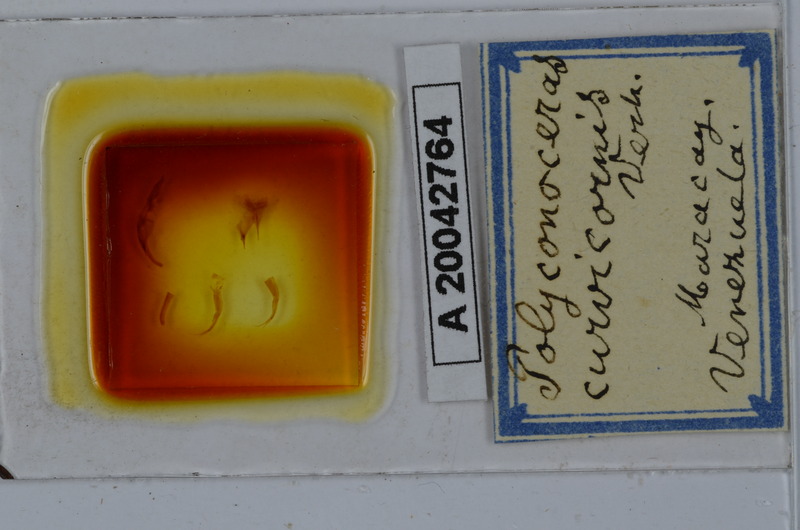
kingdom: Animalia
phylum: Arthropoda
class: Diplopoda
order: Spirobolida
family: Rhinocricidae
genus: Salpidobolus
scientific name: Salpidobolus curvicornis
